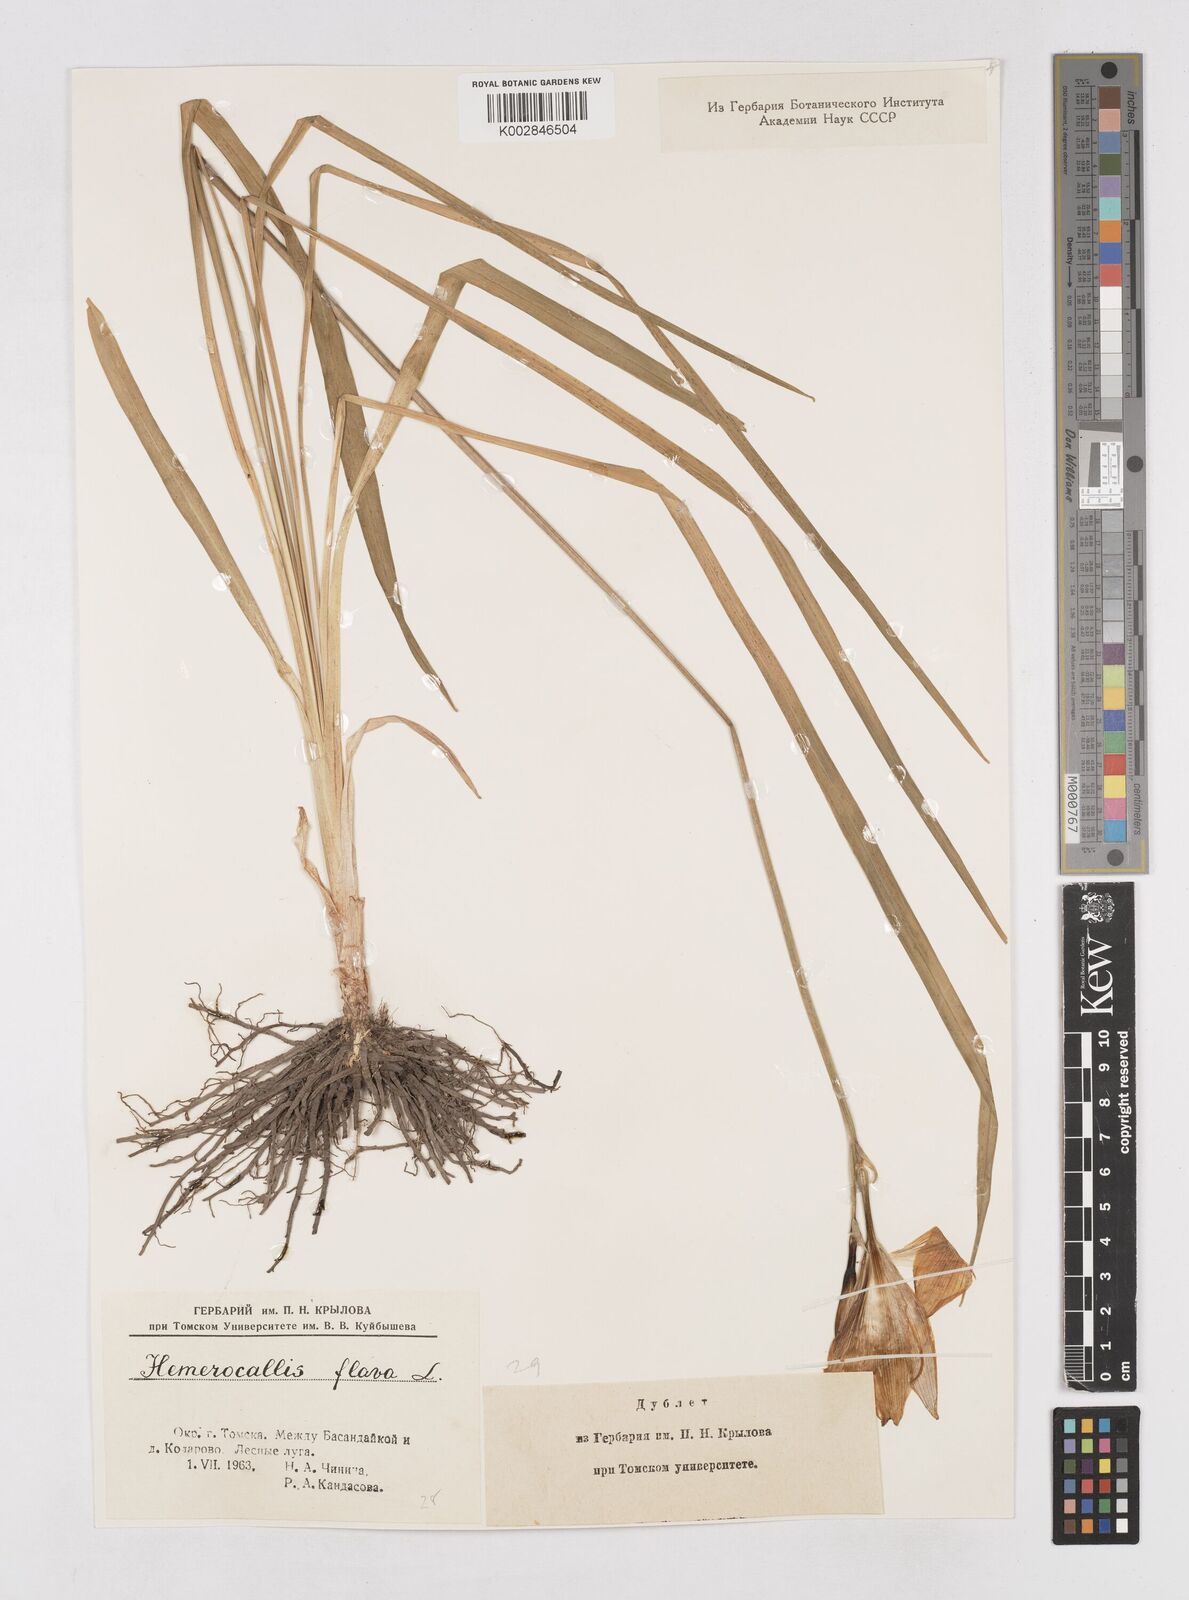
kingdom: Plantae
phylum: Tracheophyta
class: Liliopsida
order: Asparagales
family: Asphodelaceae
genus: Hemerocallis
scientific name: Hemerocallis minor
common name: Small daylily
